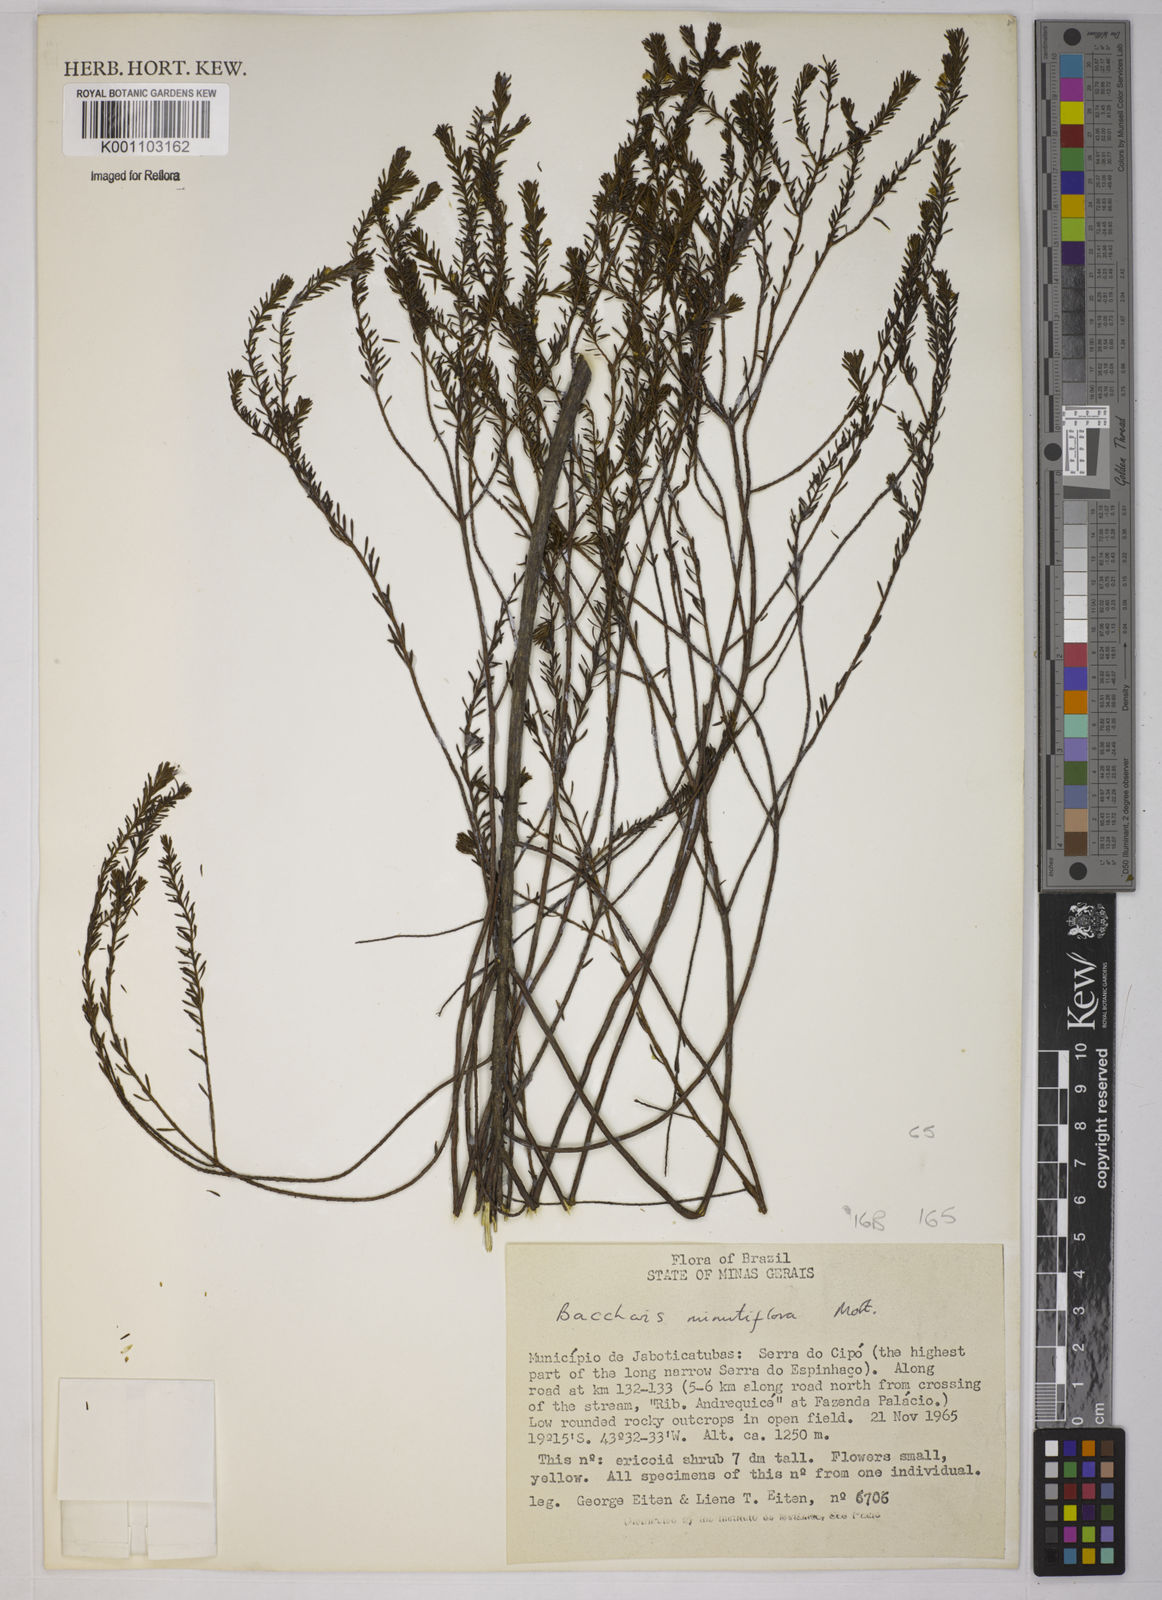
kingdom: Plantae
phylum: Tracheophyta
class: Magnoliopsida
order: Asterales
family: Asteraceae
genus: Baccharis
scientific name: Baccharis minutiflora
